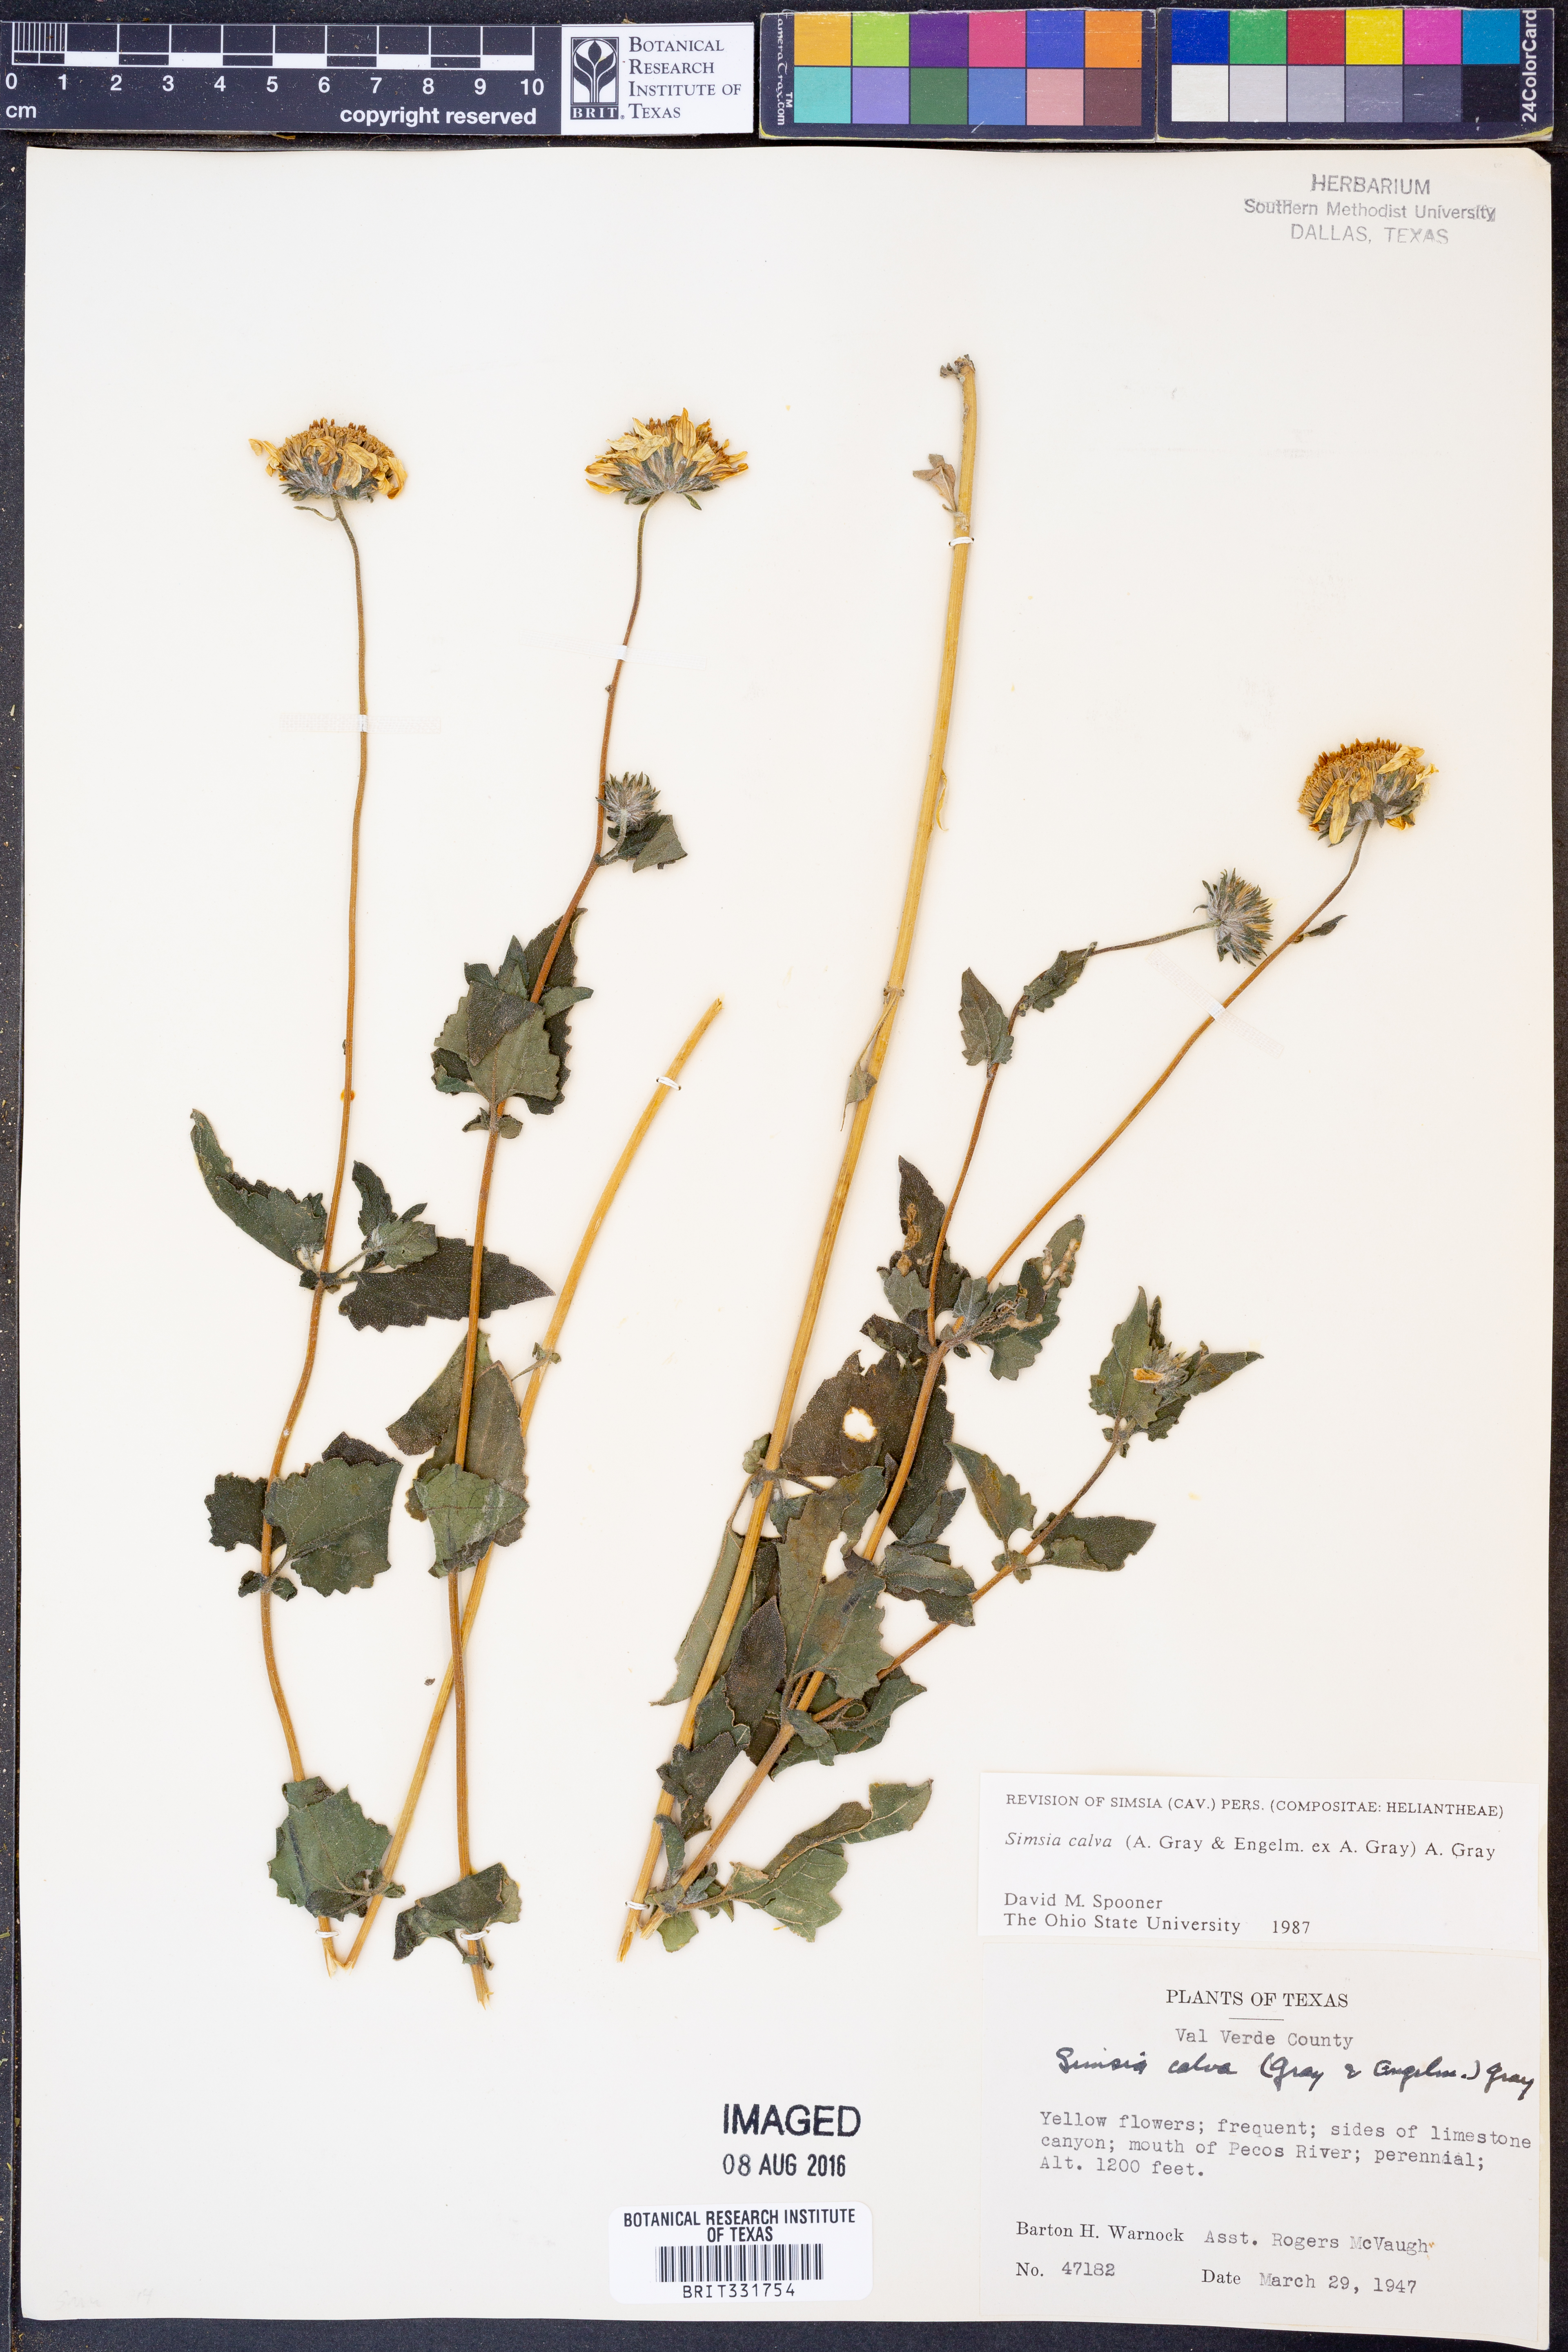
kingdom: Plantae
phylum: Tracheophyta
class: Magnoliopsida
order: Asterales
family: Asteraceae
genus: Simsia
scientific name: Simsia calva
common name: Awnless bush-sunflower
